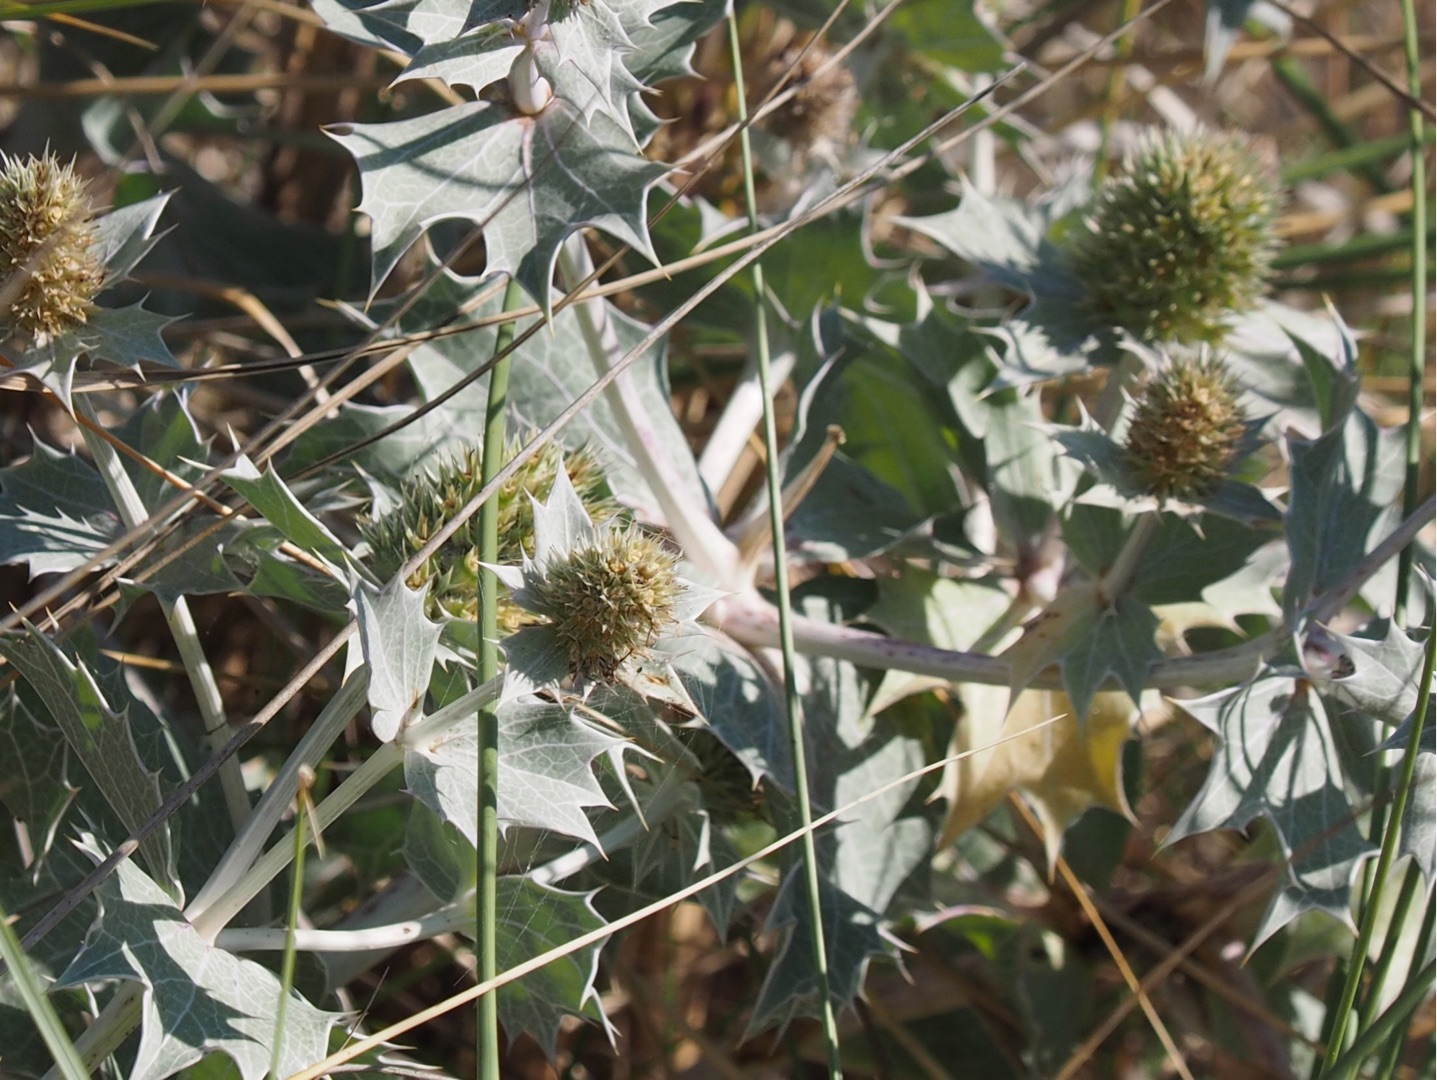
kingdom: Plantae
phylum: Tracheophyta
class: Magnoliopsida
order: Apiales
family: Apiaceae
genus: Eryngium
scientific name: Eryngium maritimum
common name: Strand-mandstro
